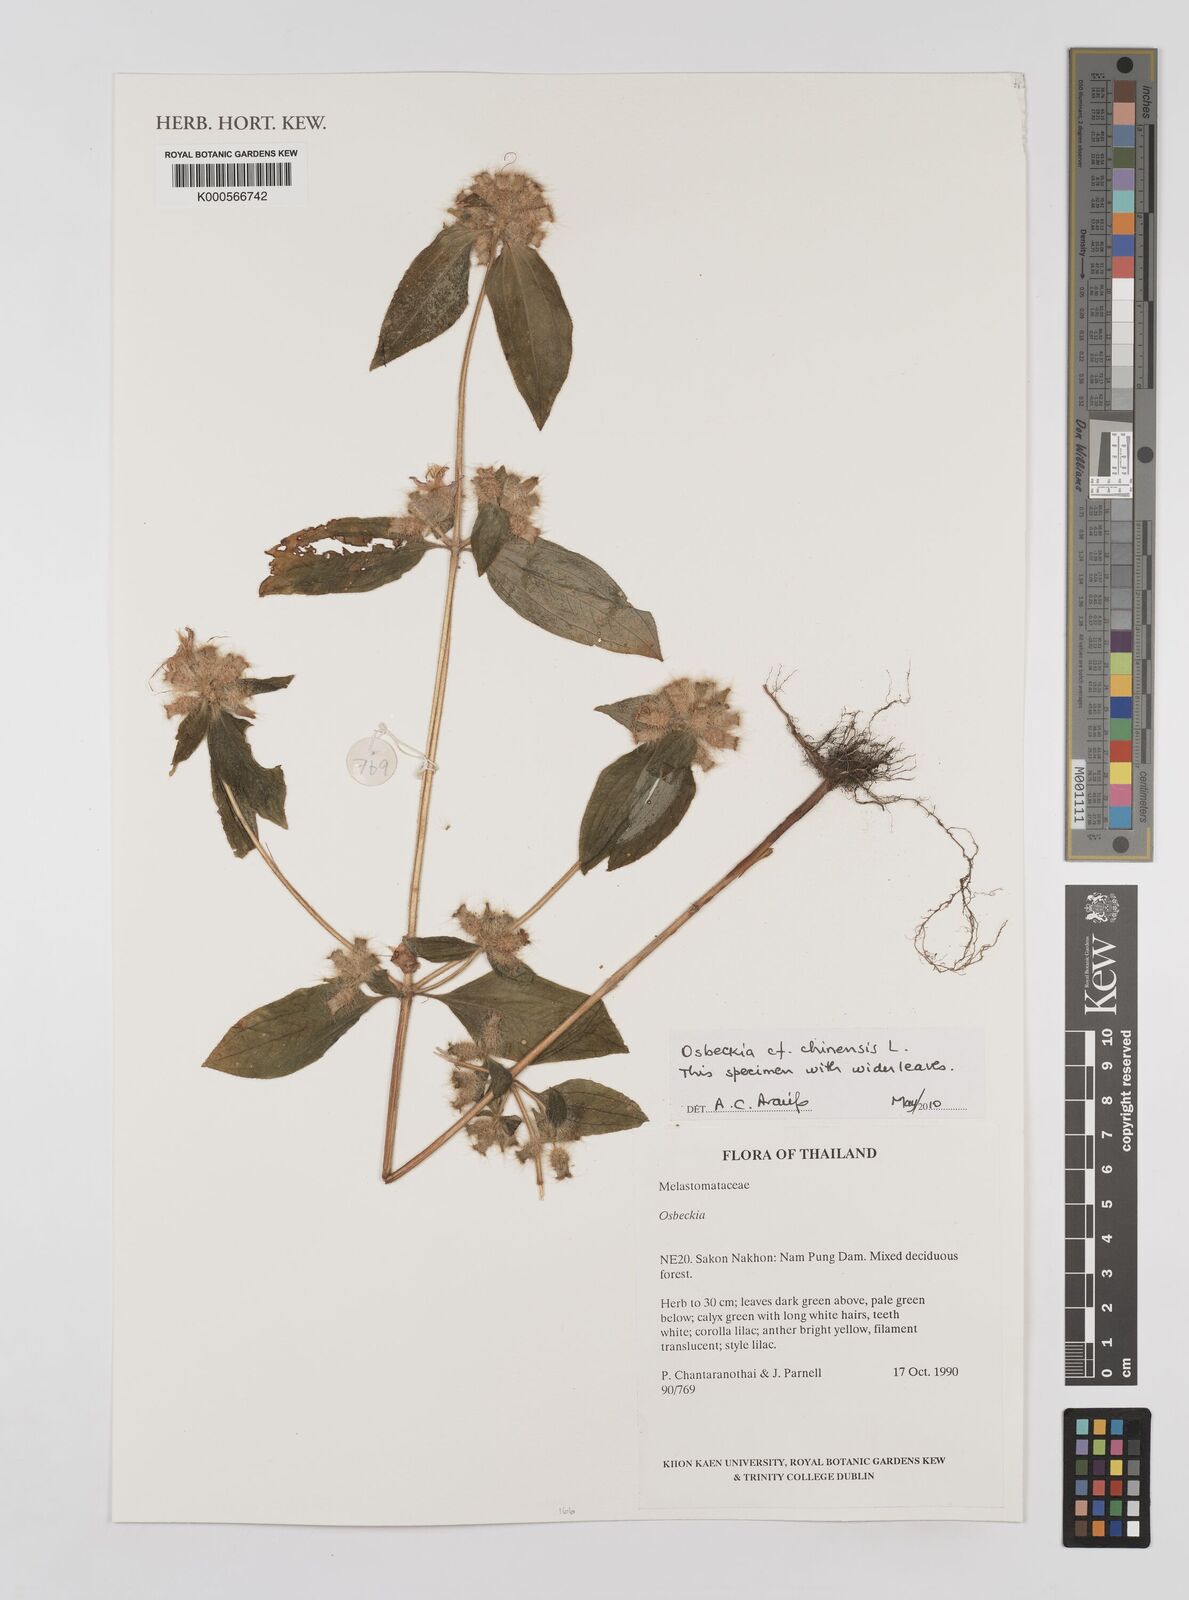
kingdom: Plantae
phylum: Tracheophyta
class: Magnoliopsida
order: Myrtales
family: Melastomataceae
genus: Osbeckia
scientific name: Osbeckia chinensis
